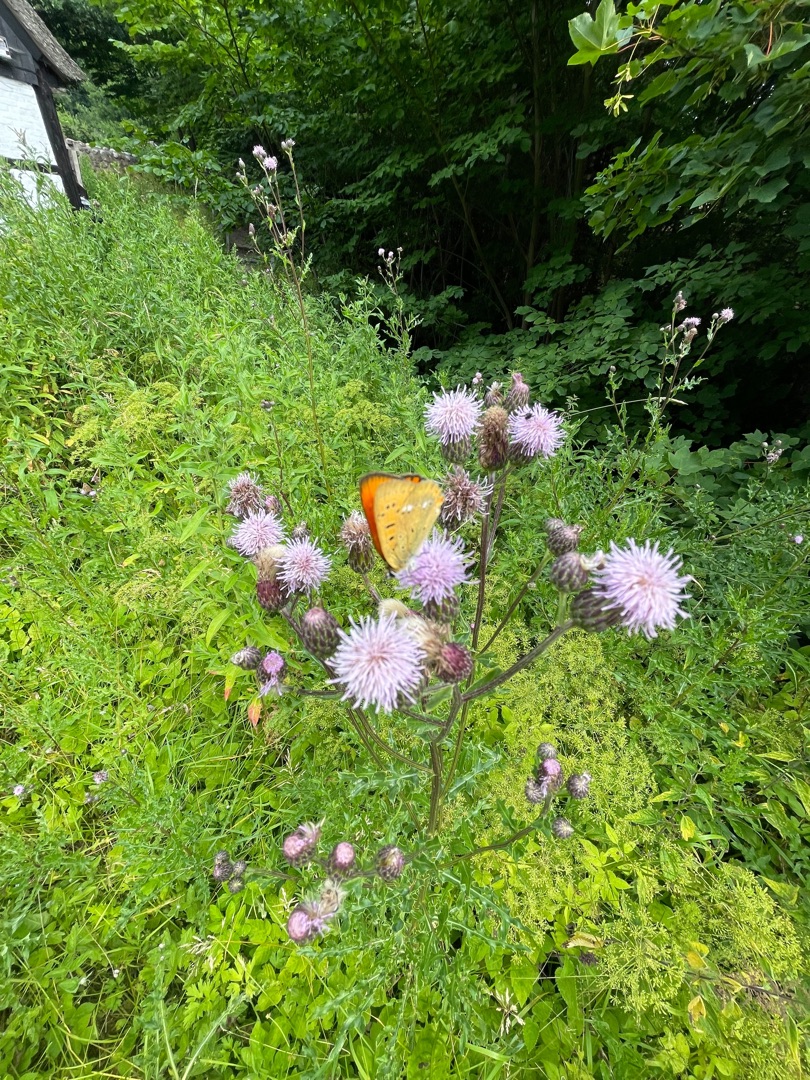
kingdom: Animalia
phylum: Arthropoda
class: Insecta
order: Lepidoptera
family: Lycaenidae
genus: Lycaena
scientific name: Lycaena virgaureae
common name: Dukatsommerfugl
